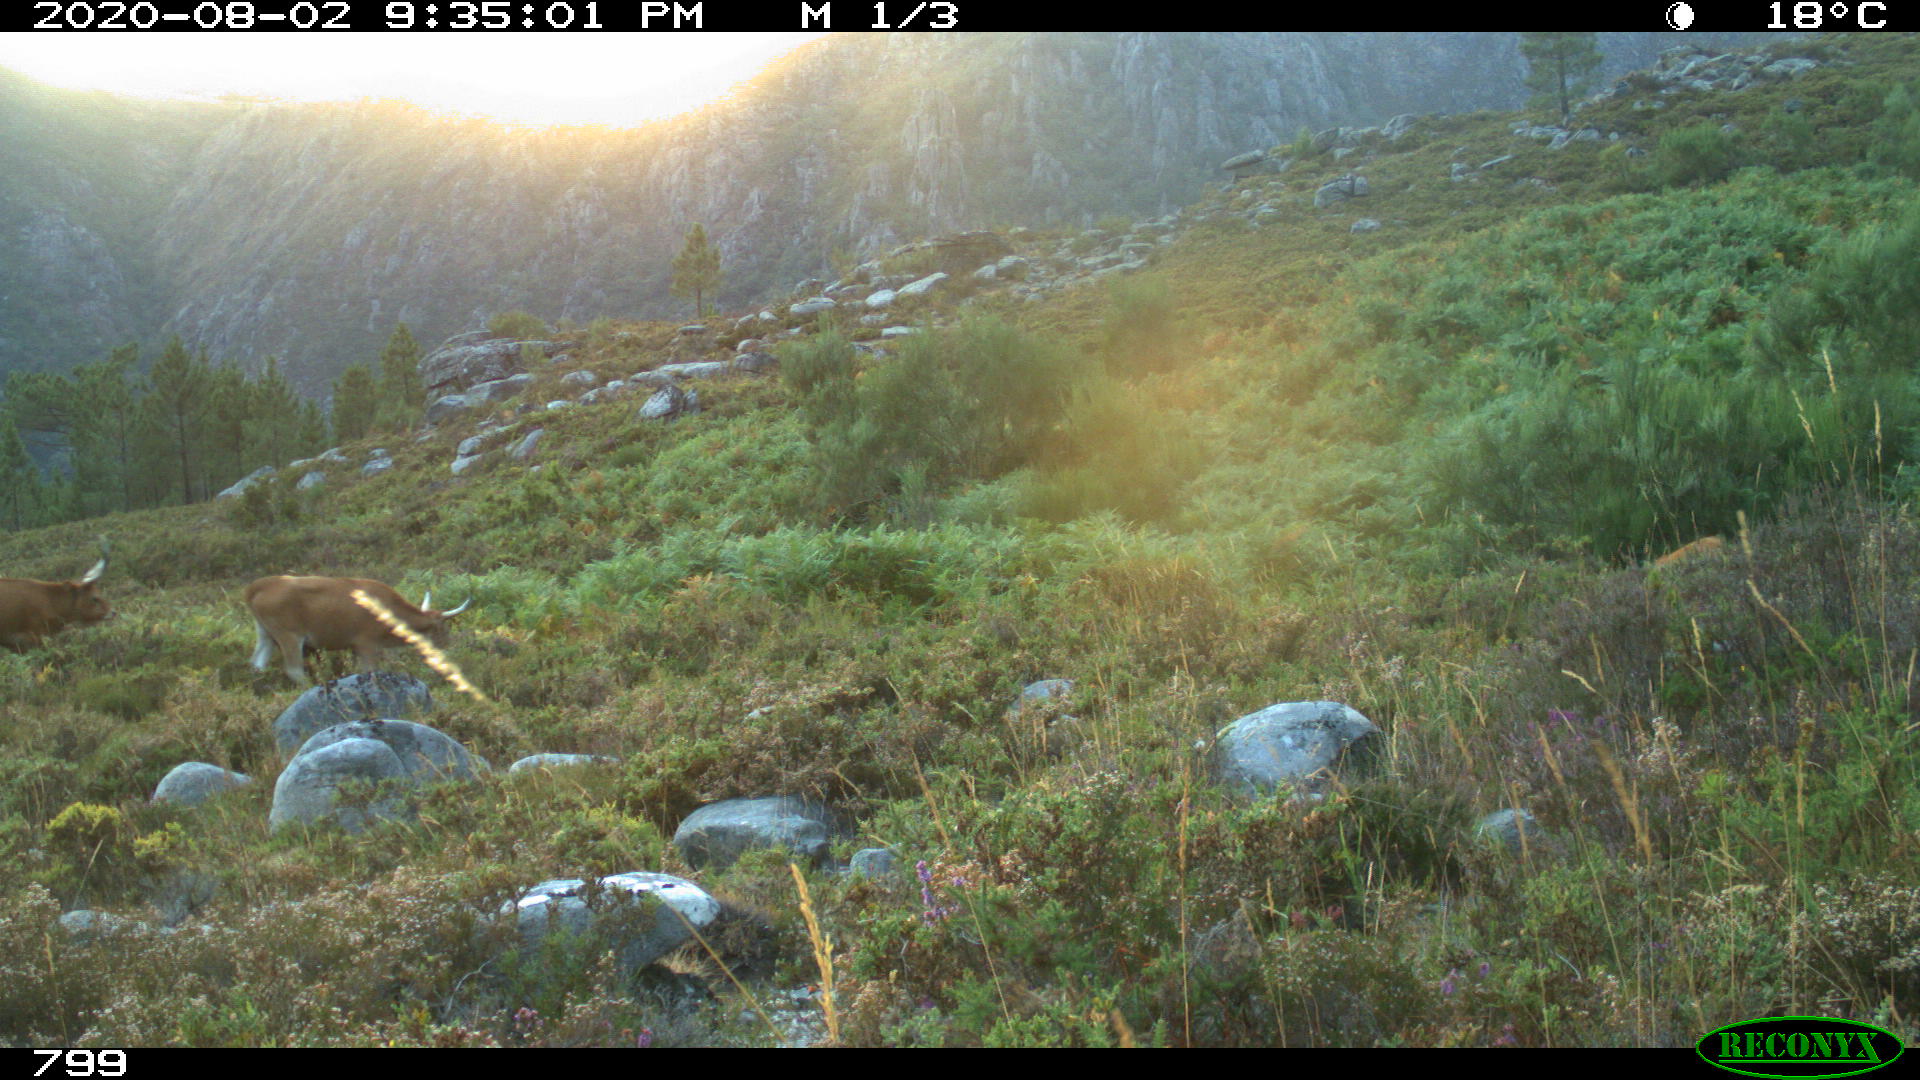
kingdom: Animalia
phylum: Chordata
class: Mammalia
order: Artiodactyla
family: Bovidae
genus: Bos
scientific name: Bos taurus
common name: Domesticated cattle
